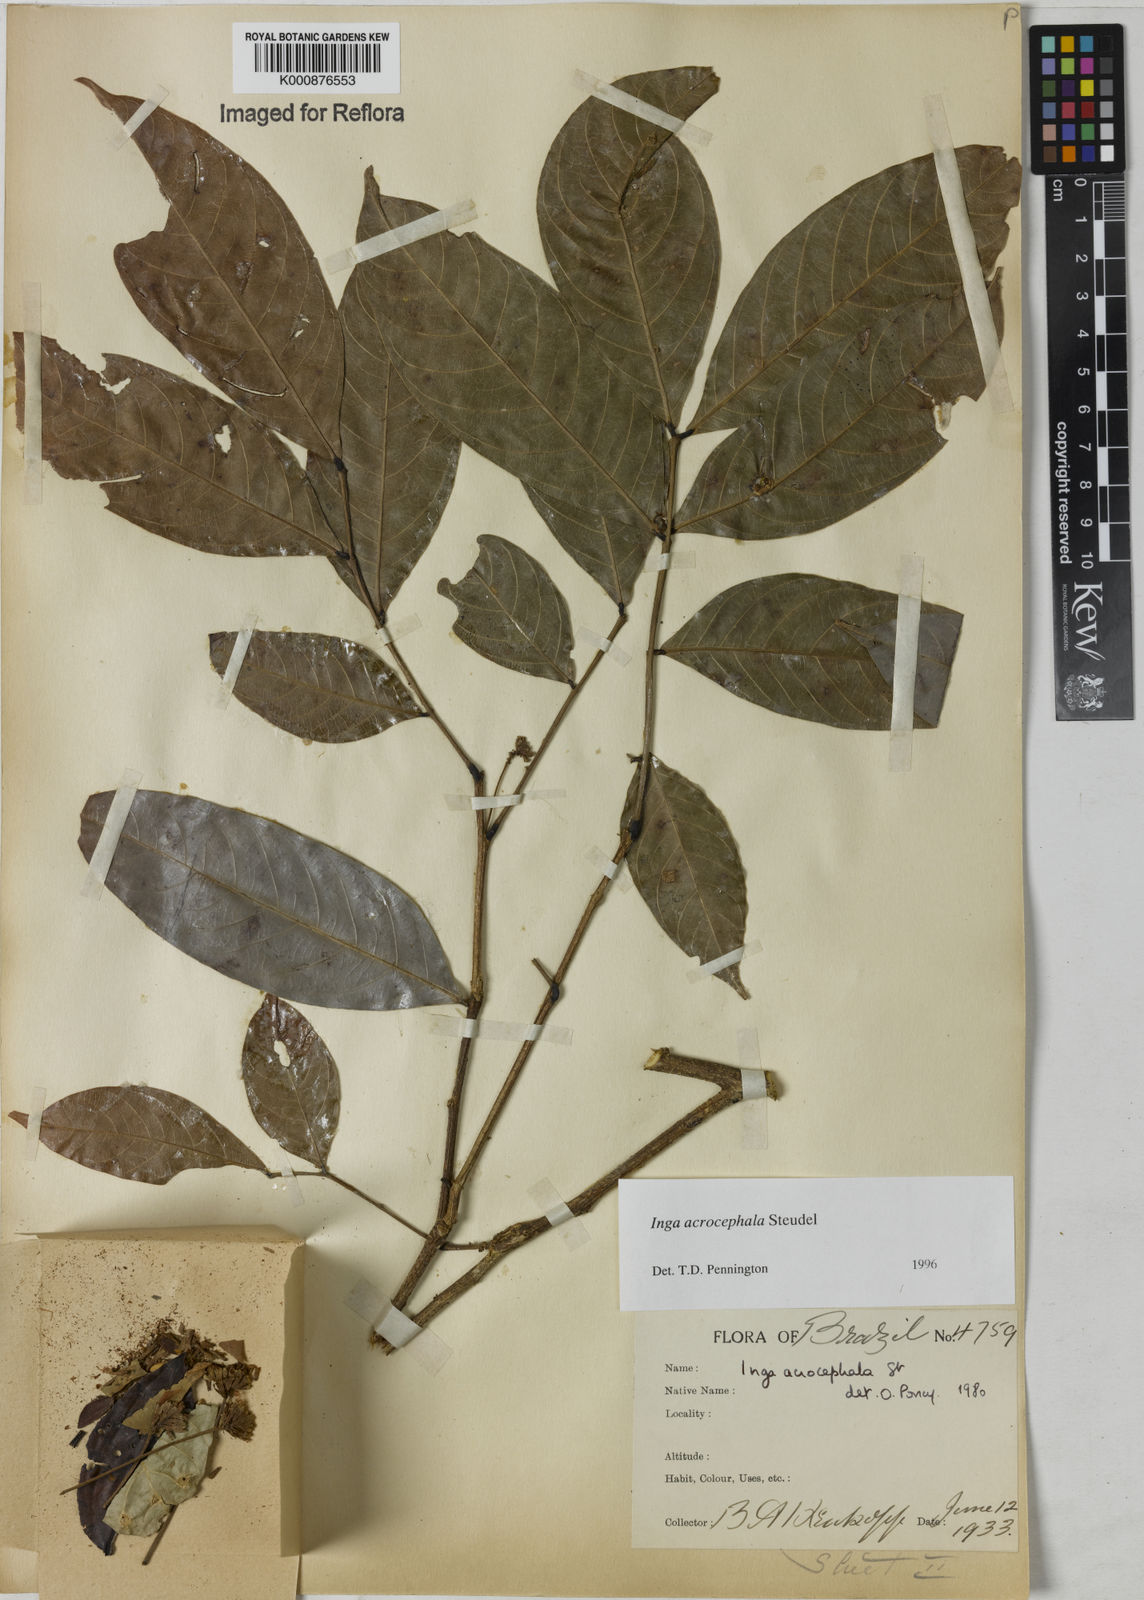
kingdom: Plantae
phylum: Tracheophyta
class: Magnoliopsida
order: Fabales
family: Fabaceae
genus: Inga
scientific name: Inga acrocephala
